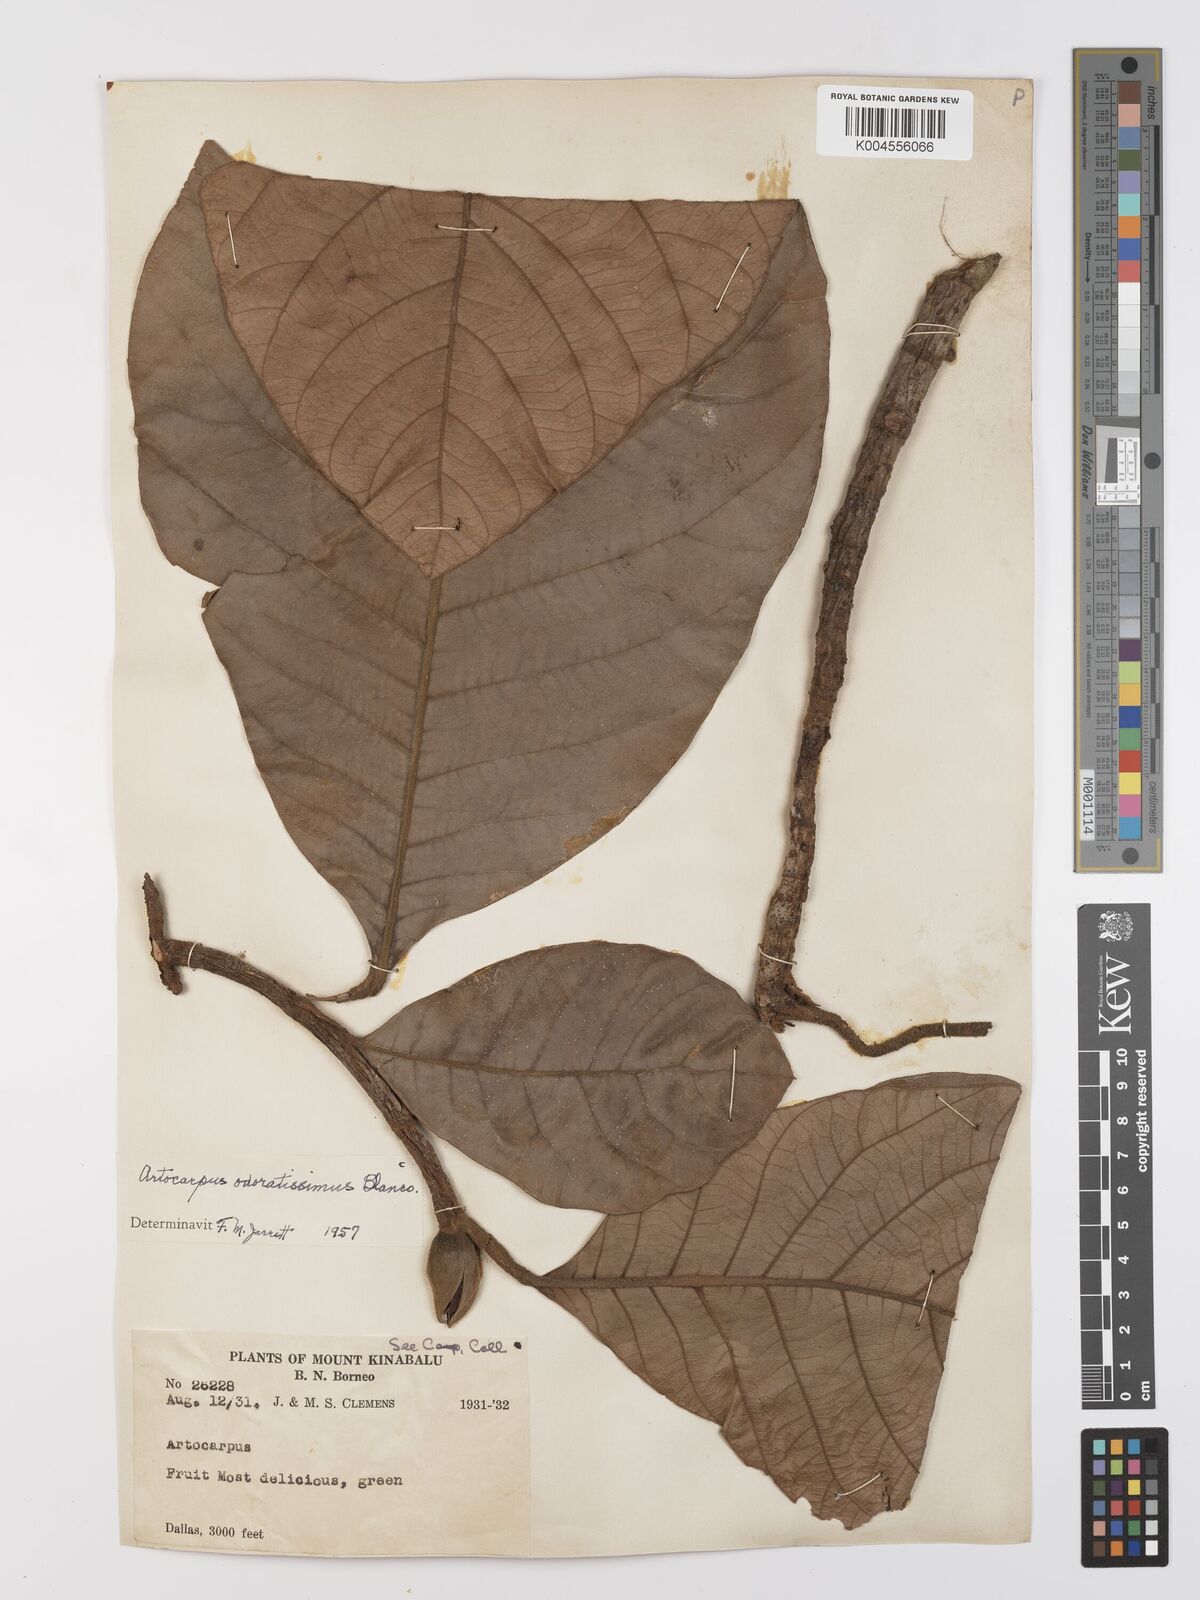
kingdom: Plantae
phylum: Tracheophyta
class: Magnoliopsida
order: Rosales
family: Moraceae
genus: Artocarpus
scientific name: Artocarpus odoratissimus
